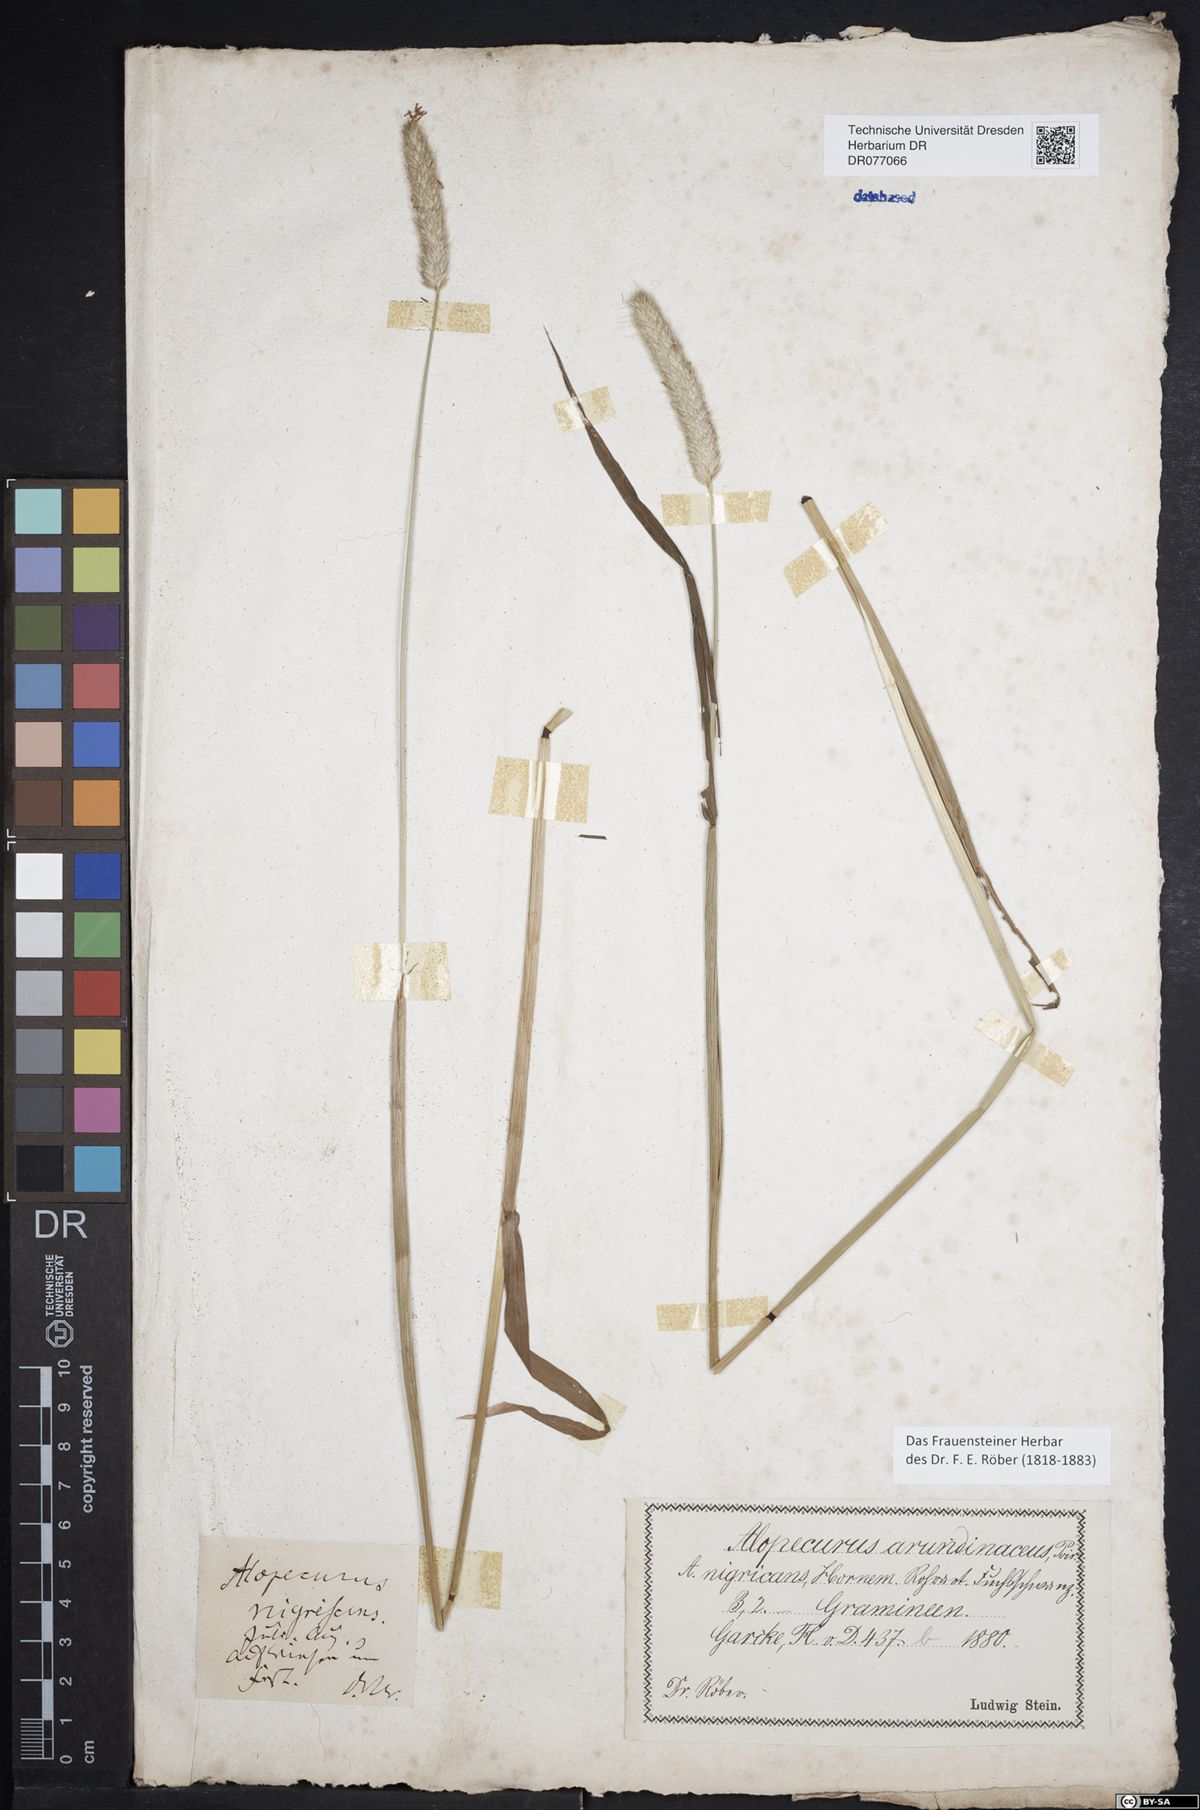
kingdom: Plantae
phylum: Tracheophyta
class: Liliopsida
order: Poales
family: Poaceae
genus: Alopecurus
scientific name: Alopecurus pratensis
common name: Meadow foxtail
